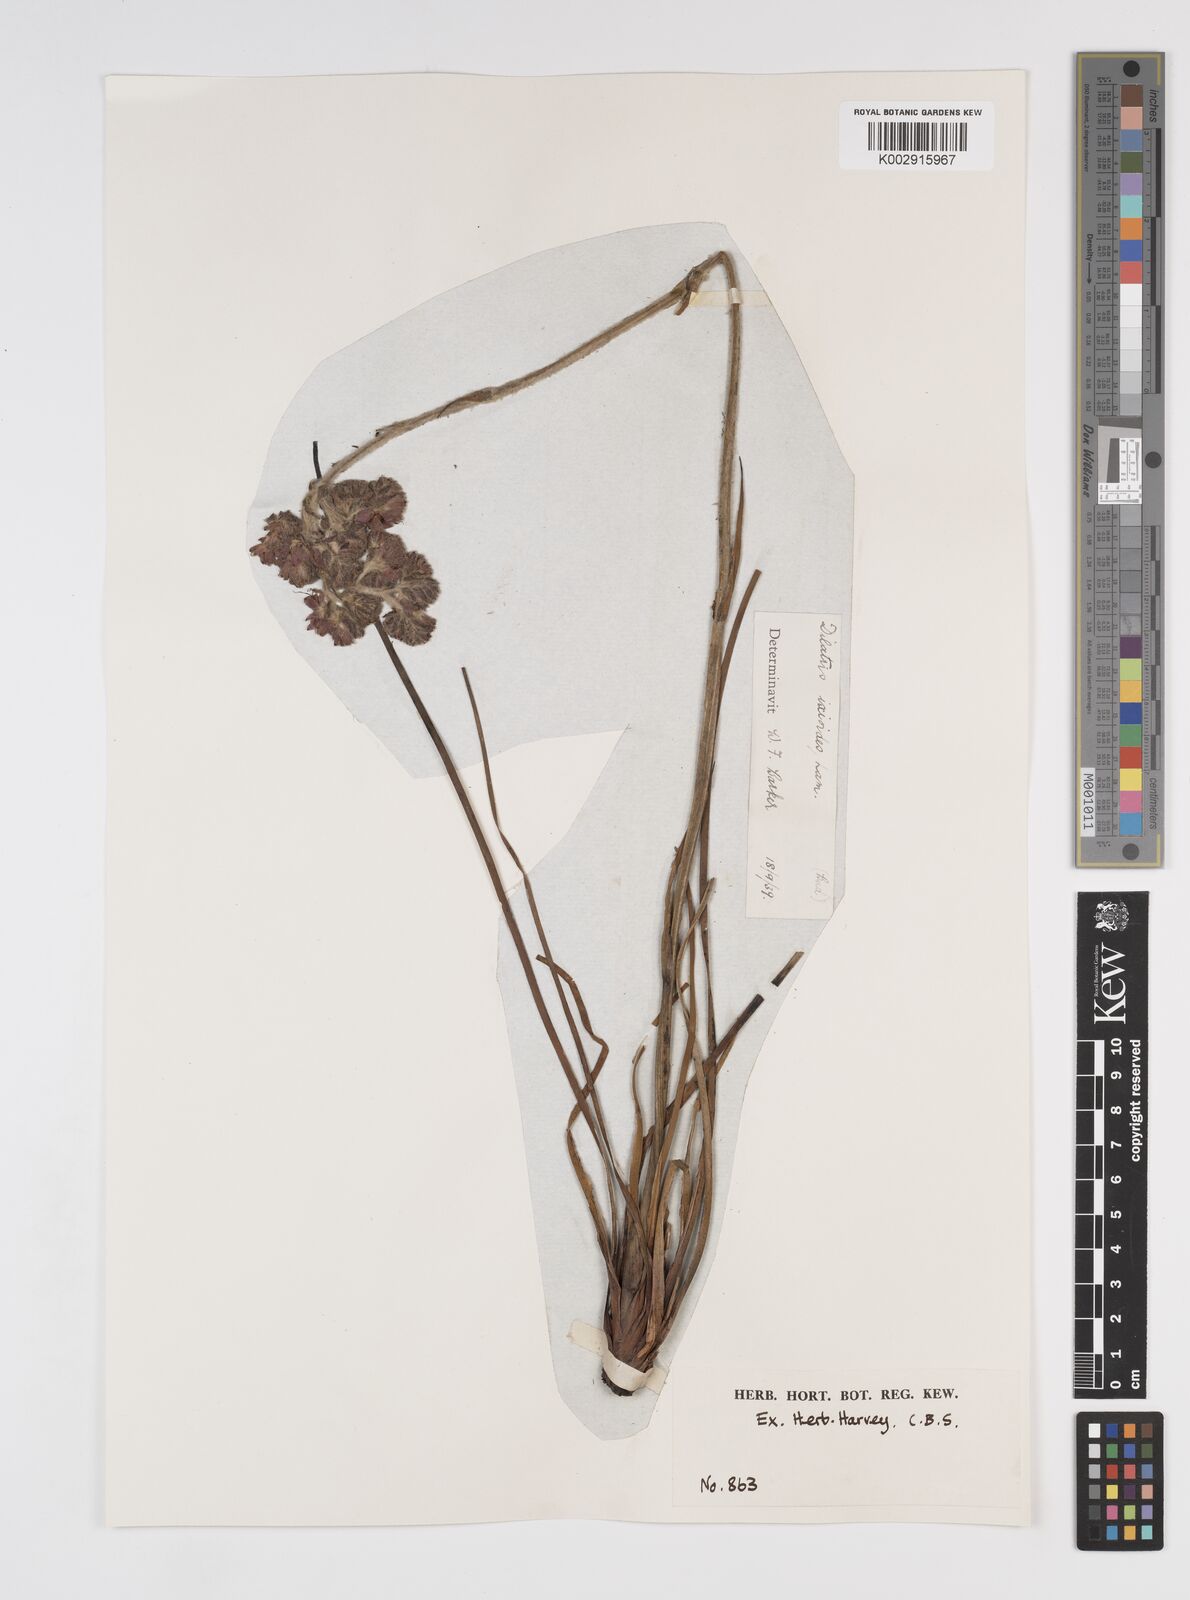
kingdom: Plantae
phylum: Tracheophyta
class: Liliopsida
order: Commelinales
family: Haemodoraceae
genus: Dilatris
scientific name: Dilatris ixioides
